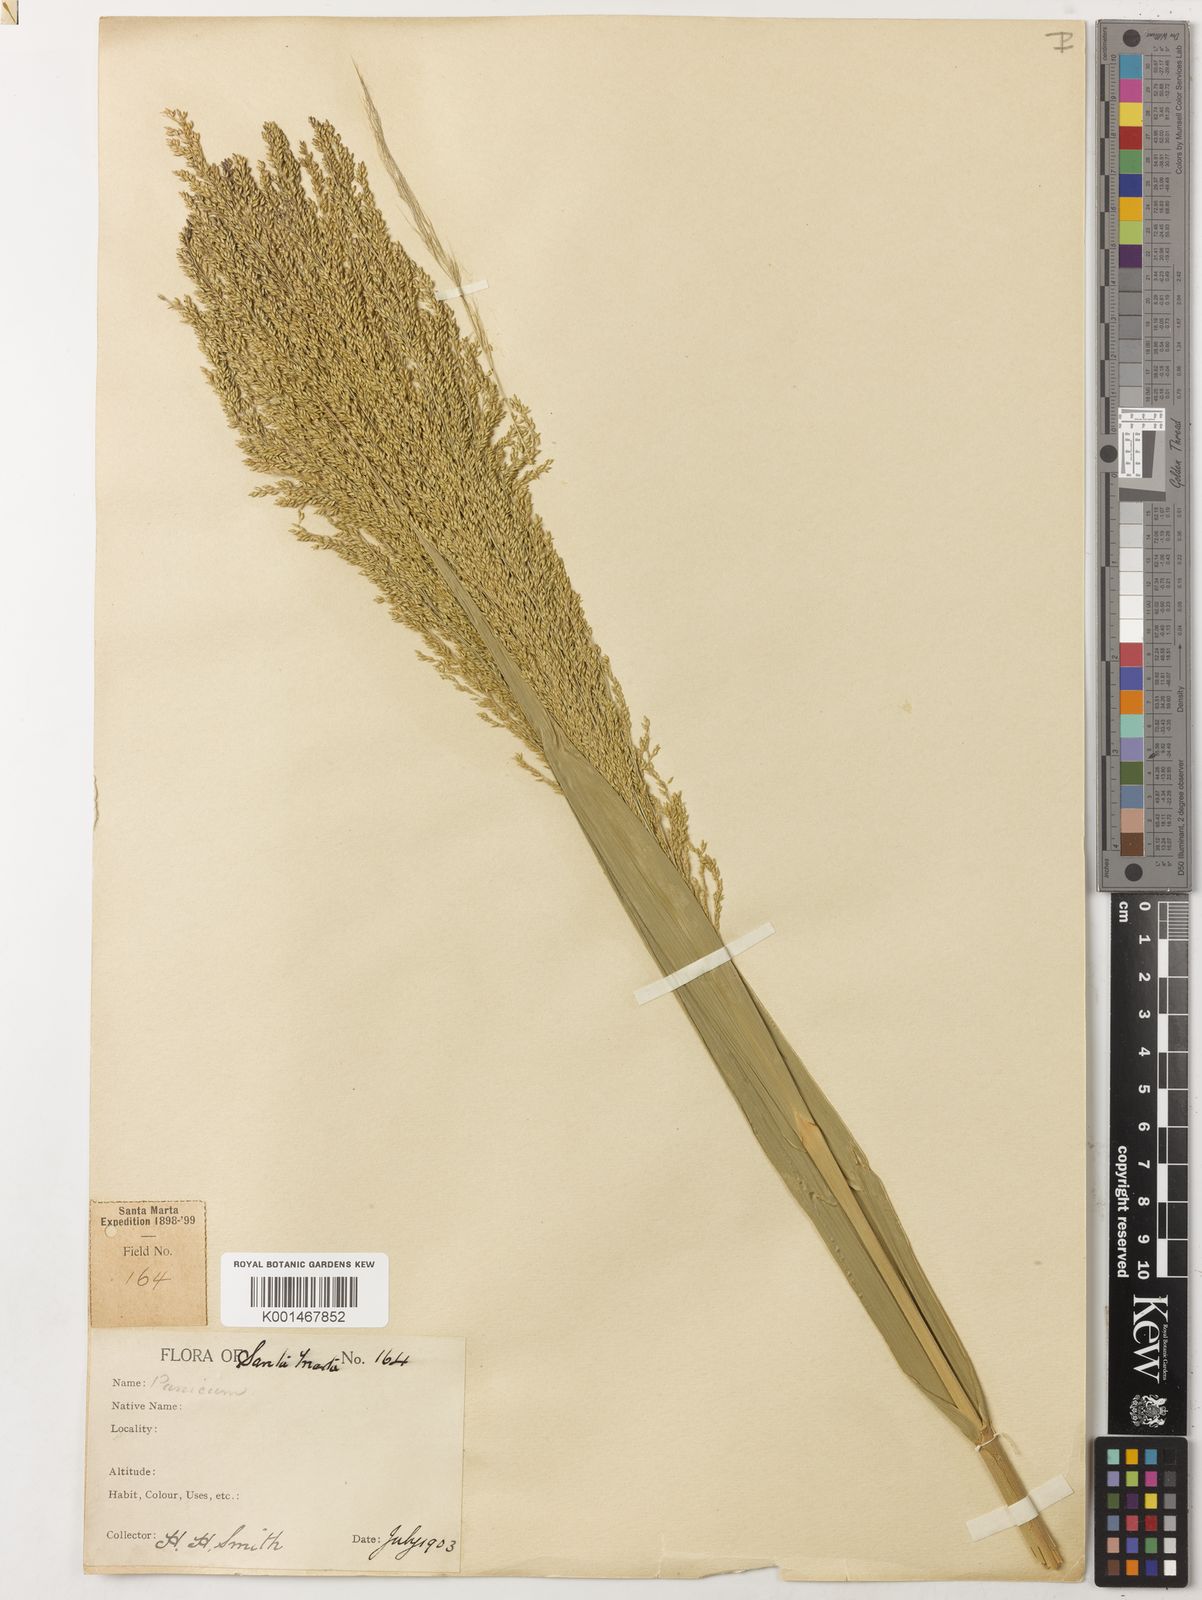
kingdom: Plantae
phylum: Tracheophyta
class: Liliopsida
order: Poales
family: Poaceae
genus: Panicum
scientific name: Panicum millegrana
